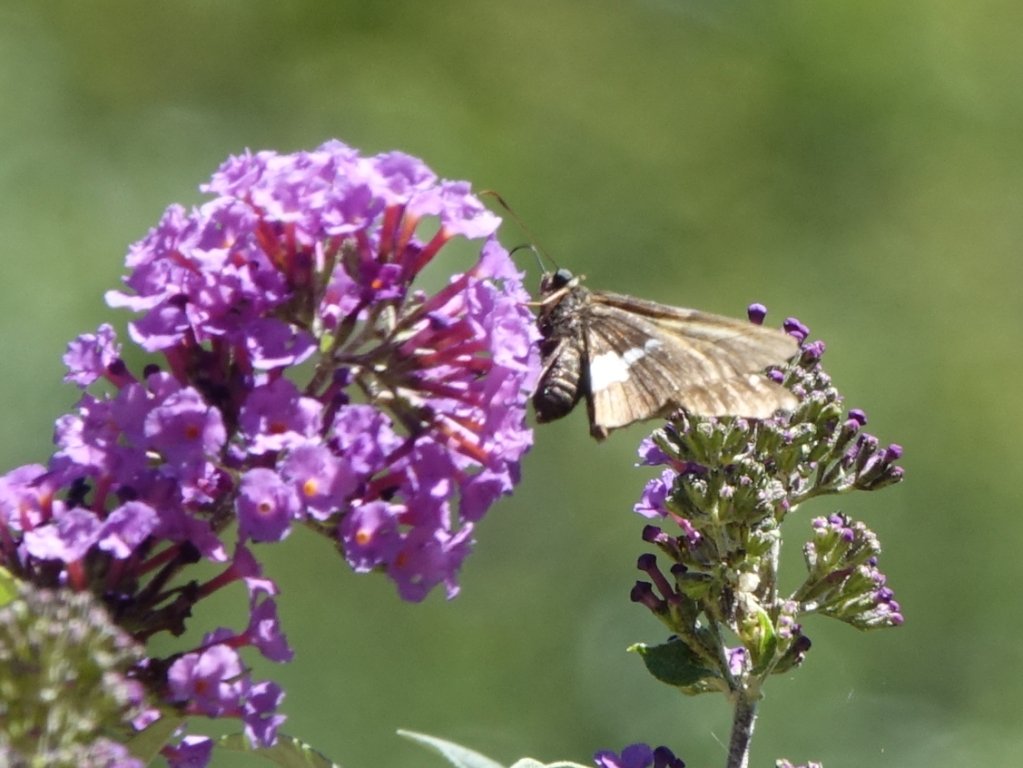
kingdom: Animalia
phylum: Arthropoda
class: Insecta
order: Lepidoptera
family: Hesperiidae
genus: Epargyreus
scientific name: Epargyreus clarus
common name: Silver-spotted Skipper
